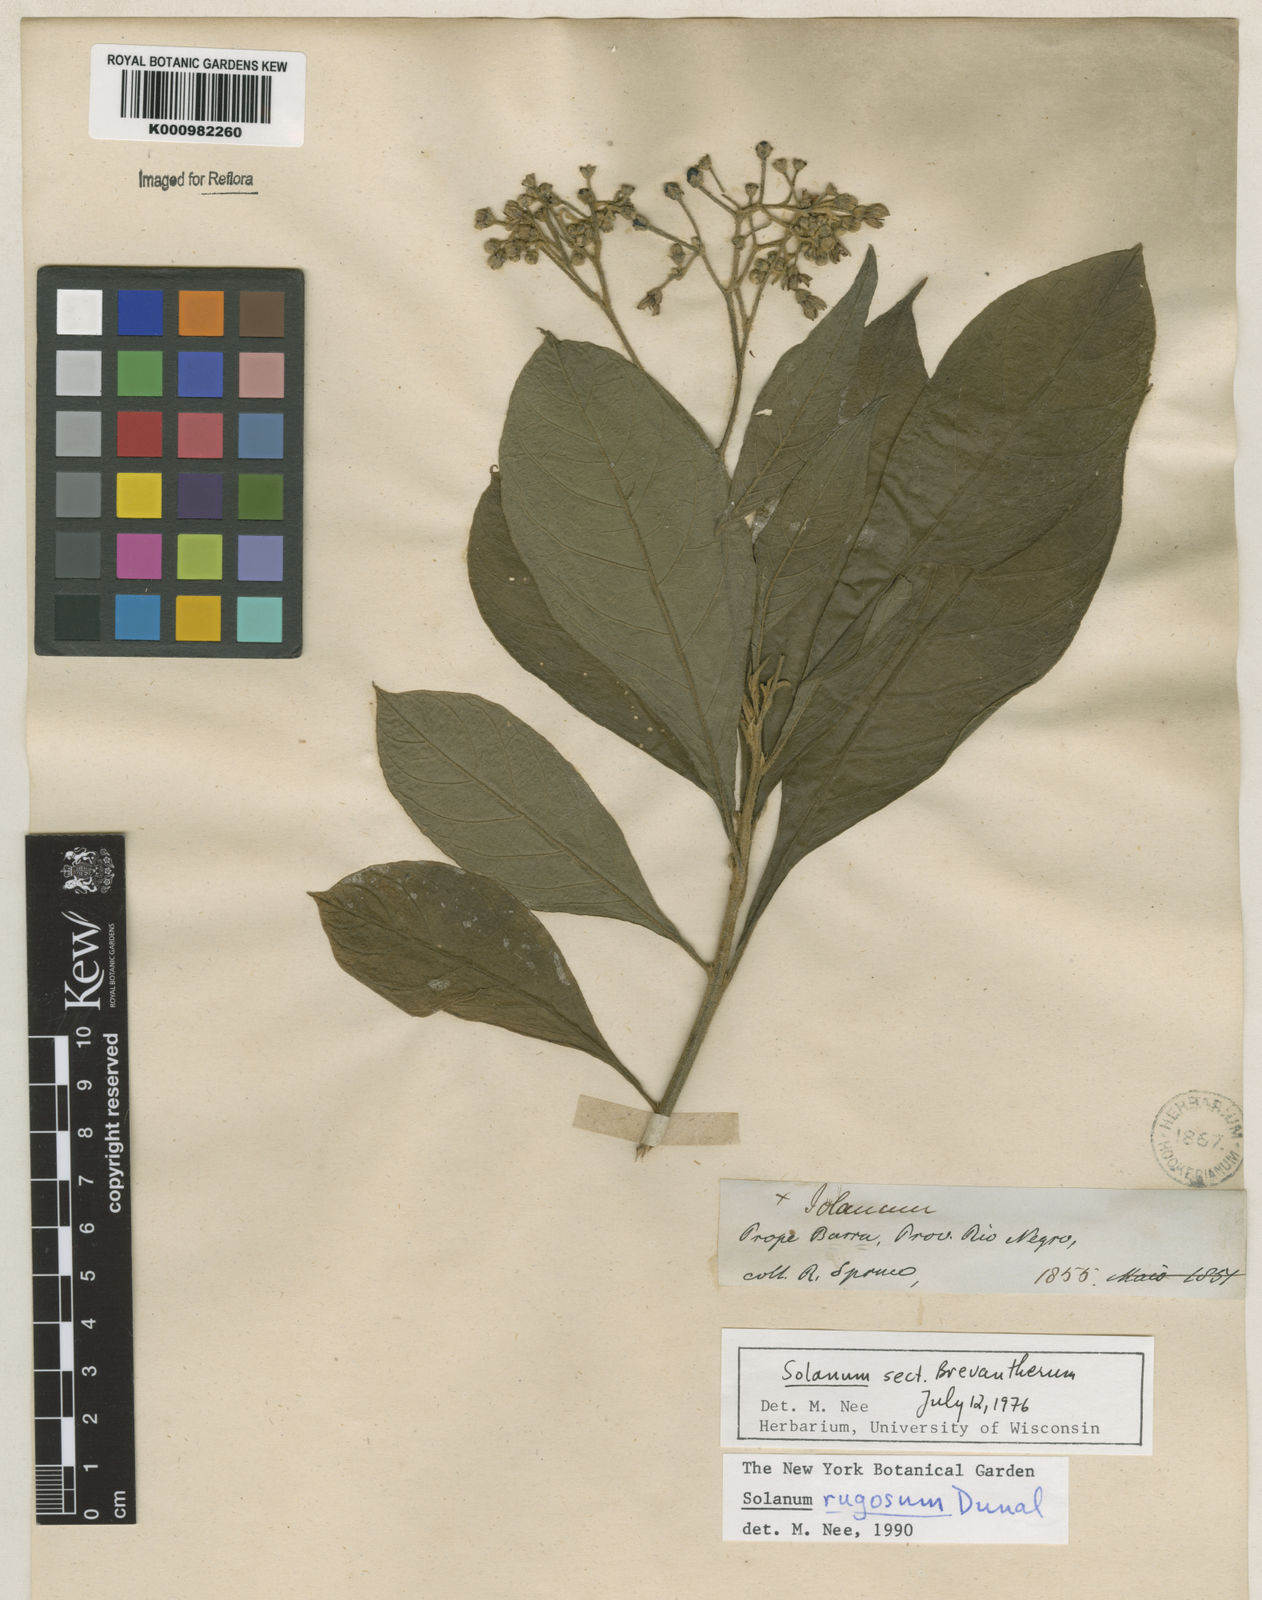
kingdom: Plantae
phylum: Tracheophyta
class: Magnoliopsida
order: Solanales
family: Solanaceae
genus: Solanum
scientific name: Solanum rugosum
